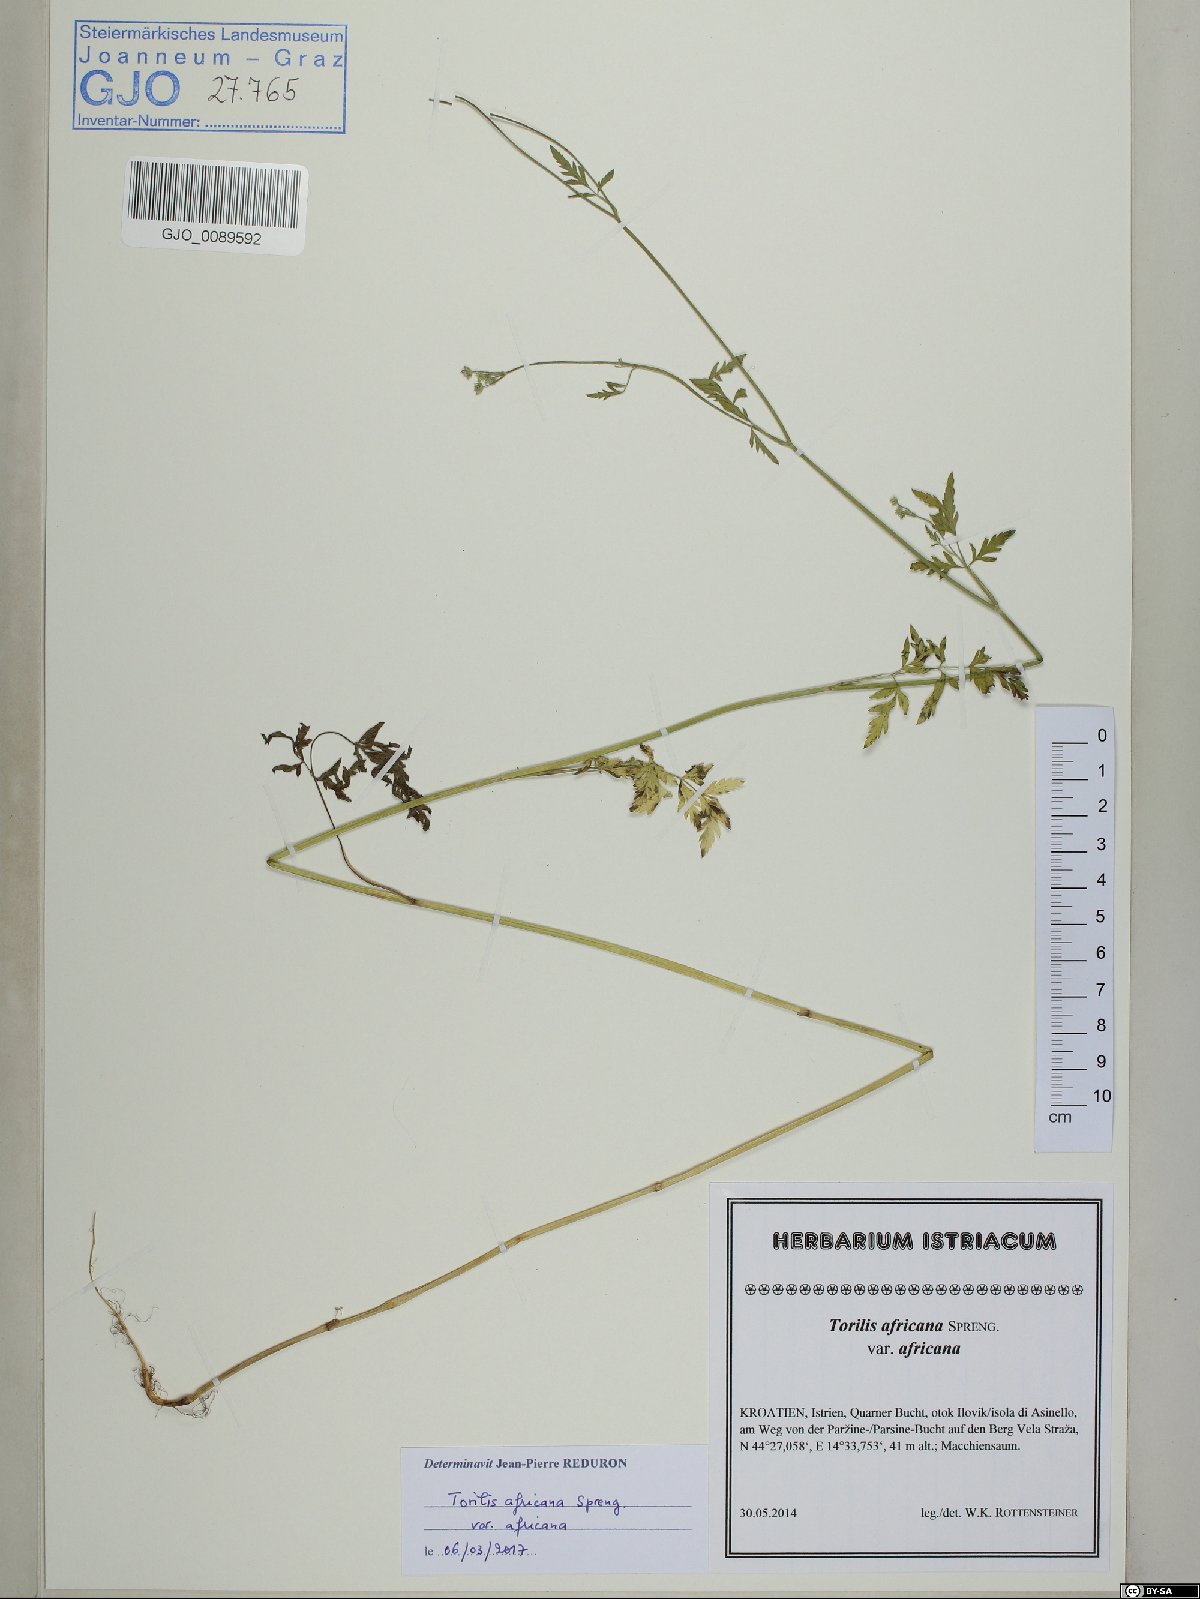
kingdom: Plantae
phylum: Tracheophyta
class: Magnoliopsida
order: Apiales
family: Apiaceae
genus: Torilis
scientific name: Torilis africana
